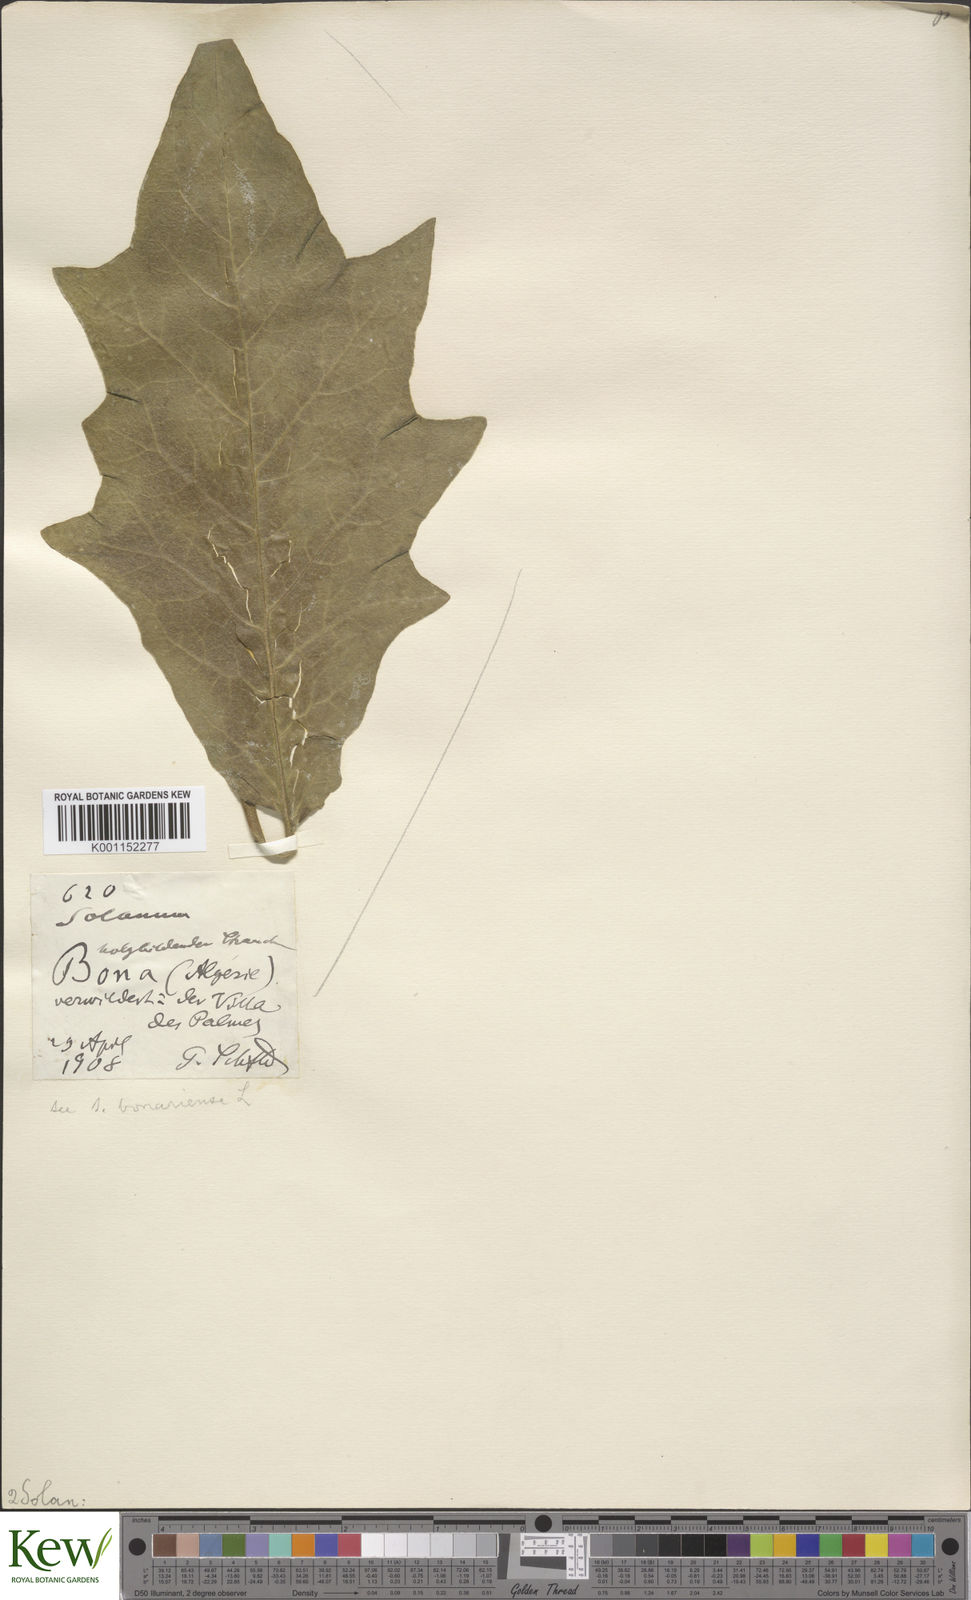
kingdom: Plantae
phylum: Tracheophyta
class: Magnoliopsida
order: Solanales
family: Solanaceae
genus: Solanum
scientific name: Solanum bonariense
